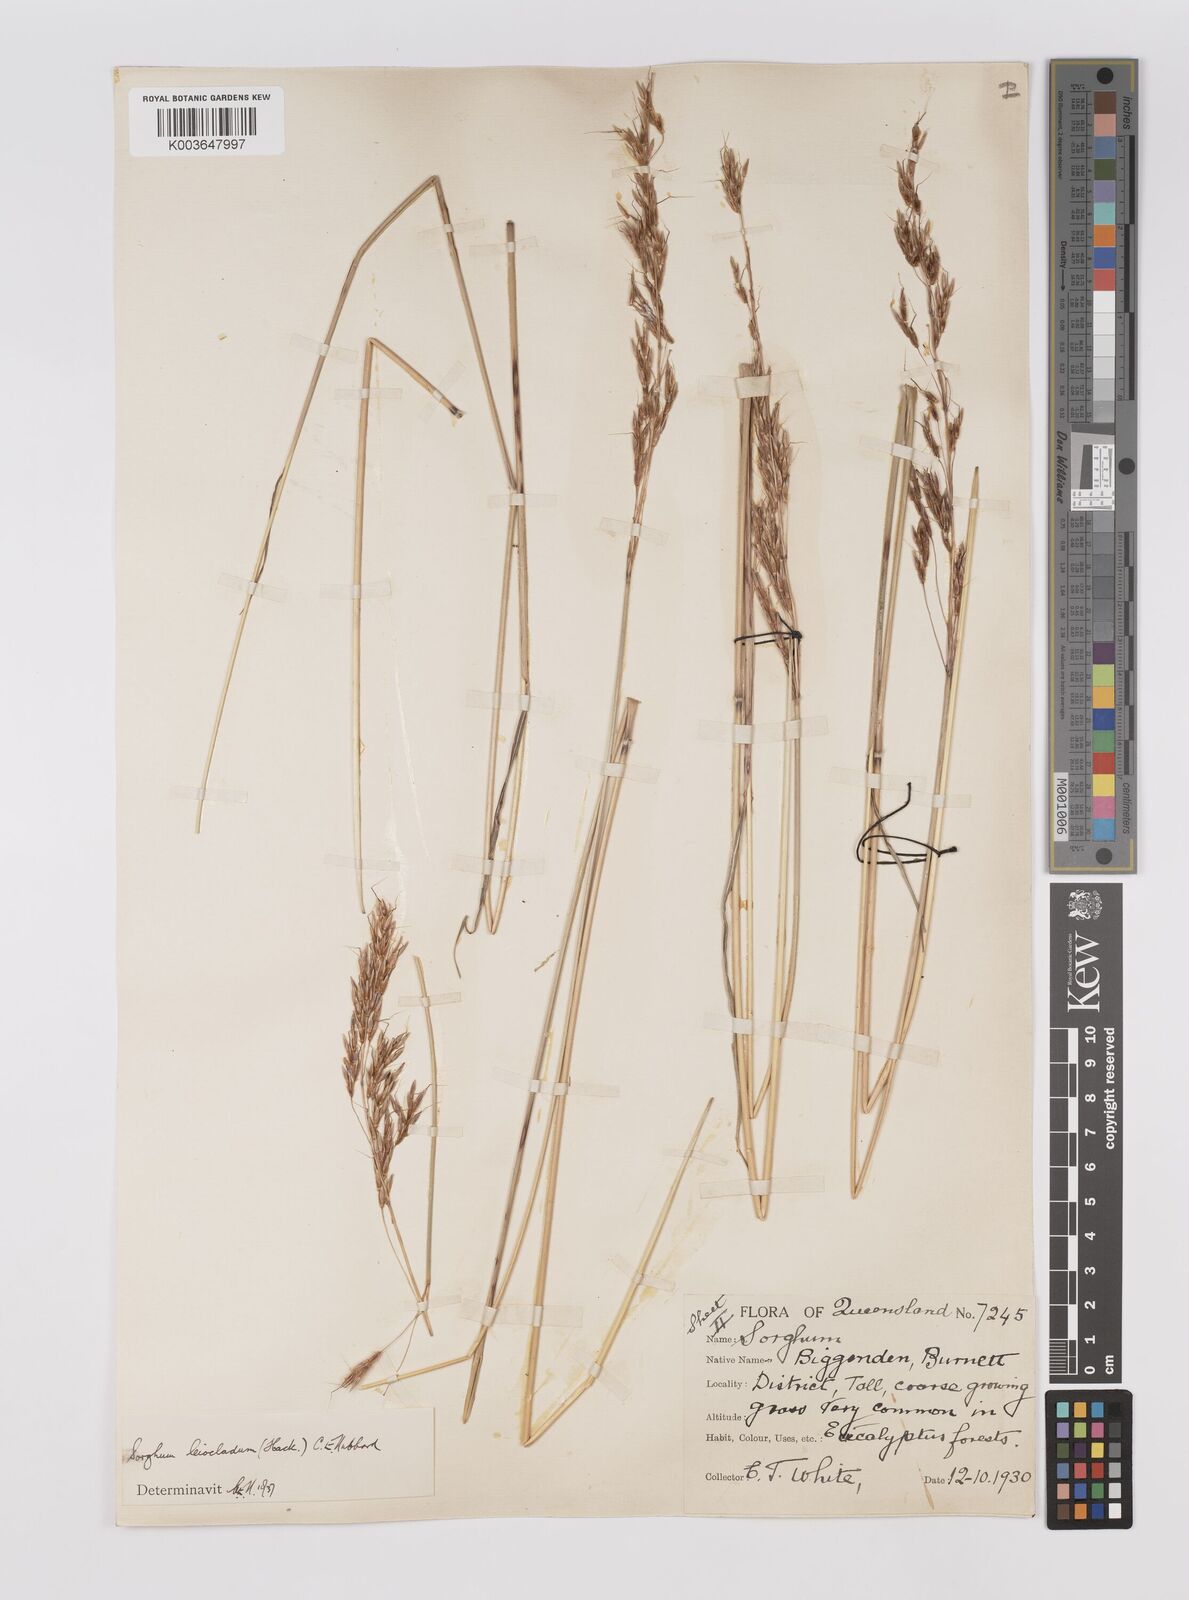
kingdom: Plantae
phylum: Tracheophyta
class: Liliopsida
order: Poales
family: Poaceae
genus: Sarga
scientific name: Sarga leioclada
